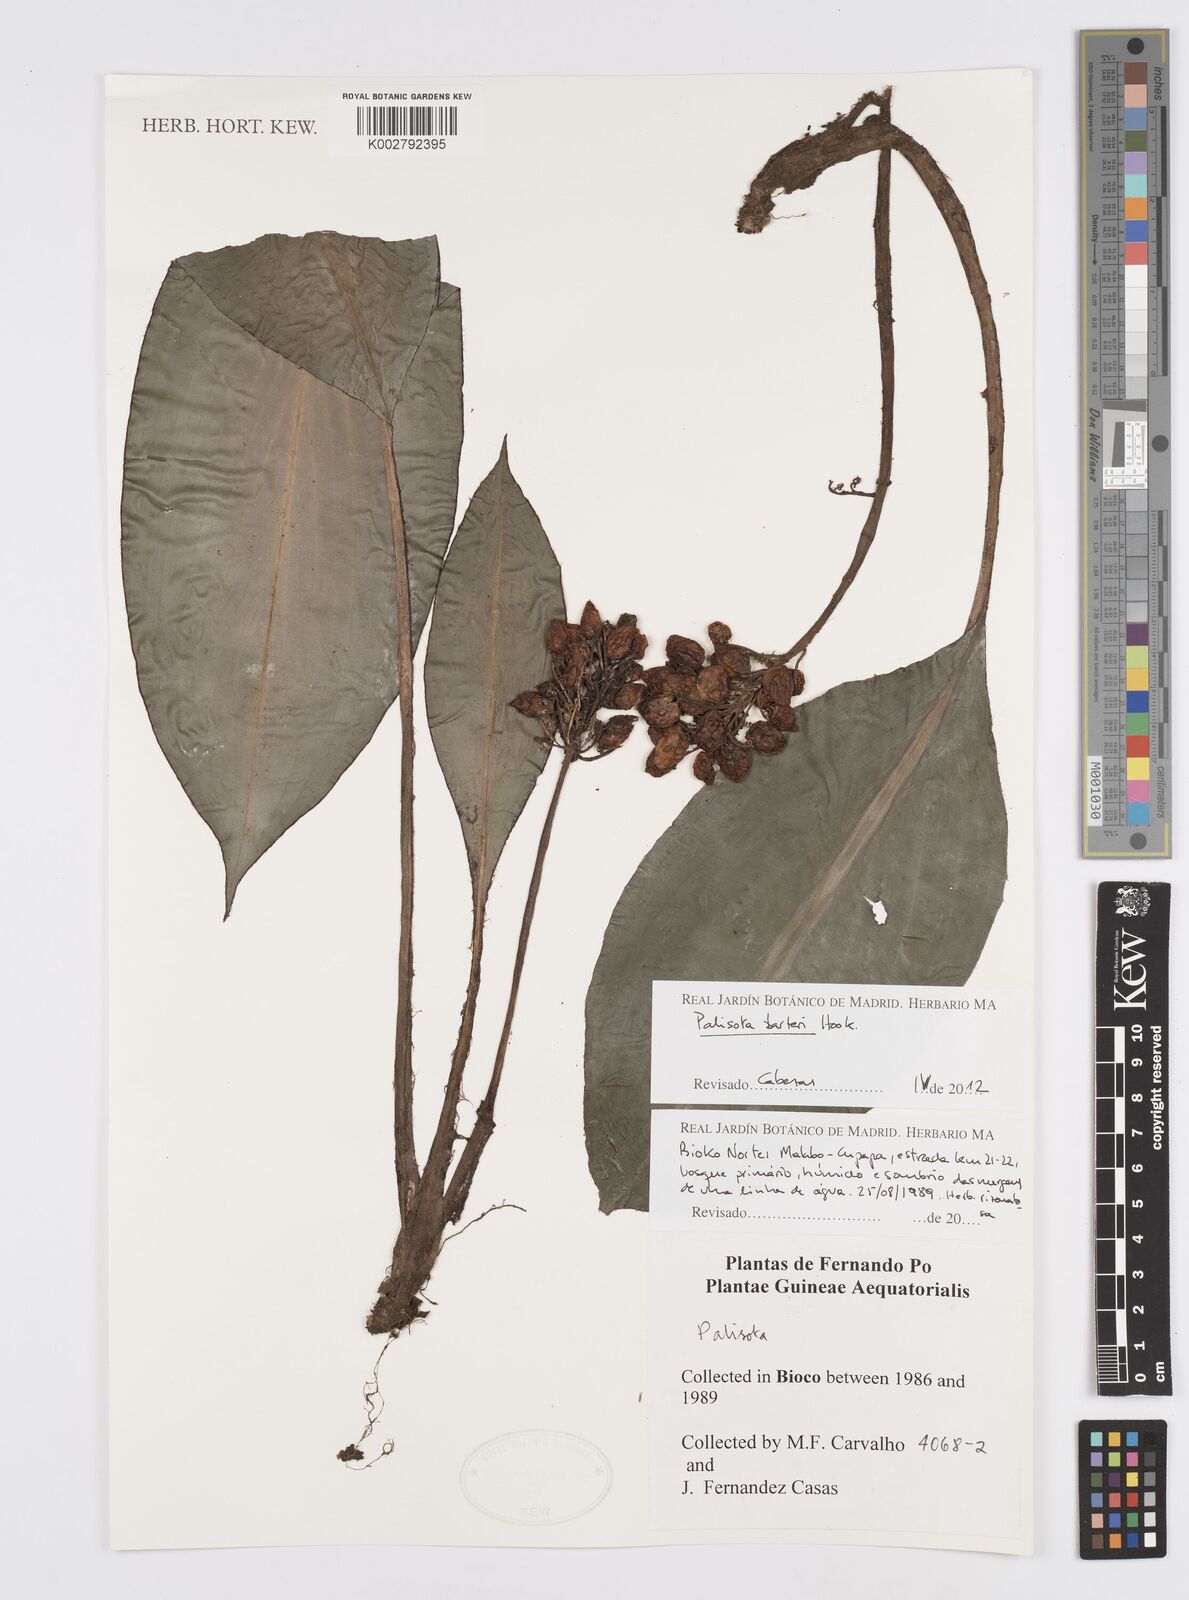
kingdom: Plantae
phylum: Tracheophyta
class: Liliopsida
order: Commelinales
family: Commelinaceae
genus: Palisota
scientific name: Palisota barteri
